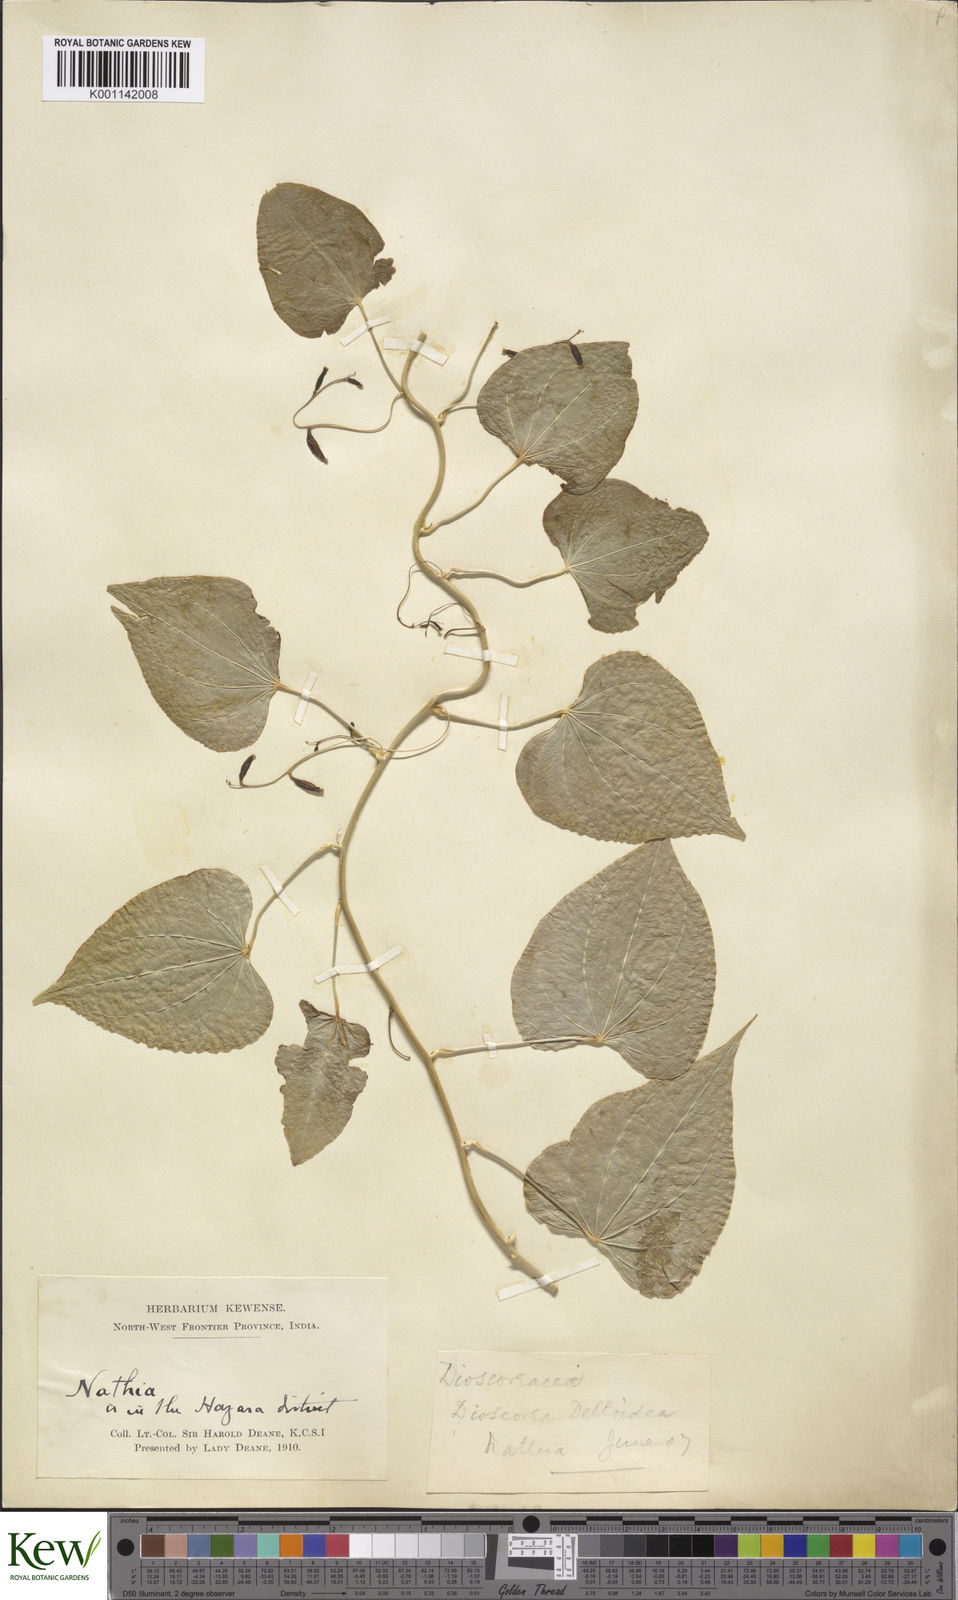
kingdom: Plantae
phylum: Tracheophyta
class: Liliopsida
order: Dioscoreales
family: Dioscoreaceae
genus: Dioscorea
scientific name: Dioscorea deltoidea
